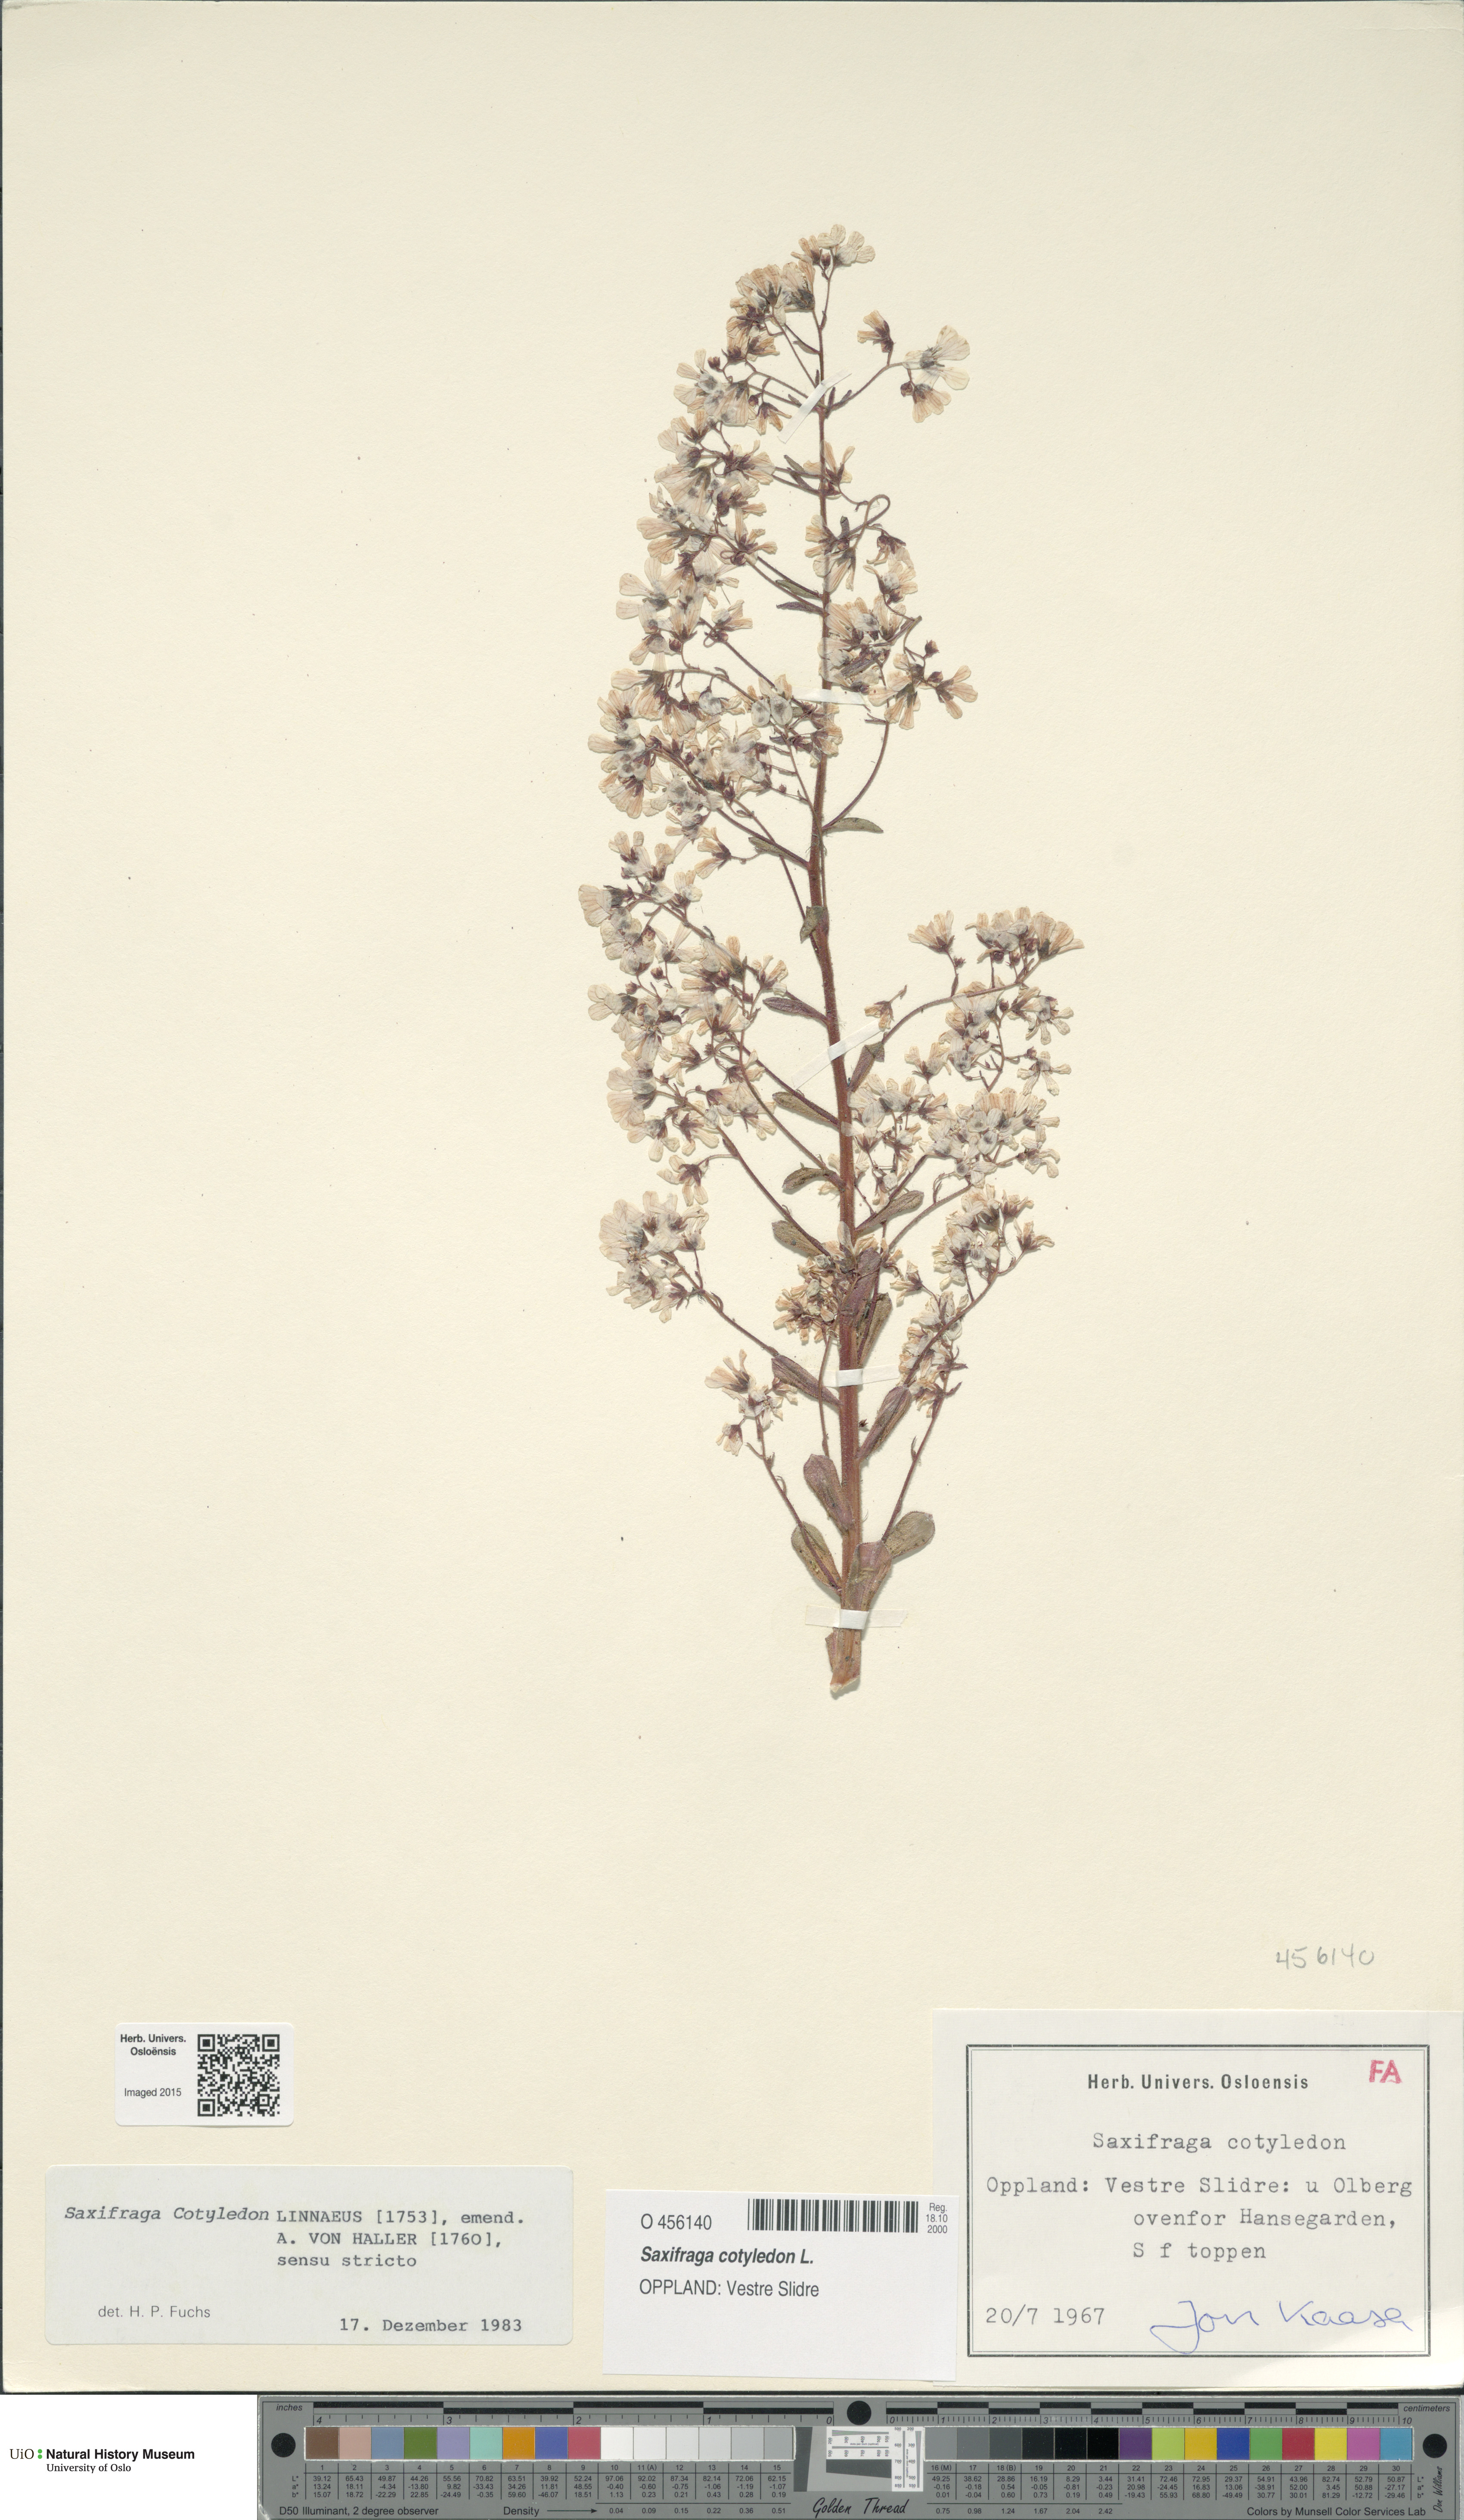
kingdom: Plantae
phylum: Tracheophyta
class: Magnoliopsida
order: Saxifragales
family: Saxifragaceae
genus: Saxifraga
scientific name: Saxifraga cotyledon
